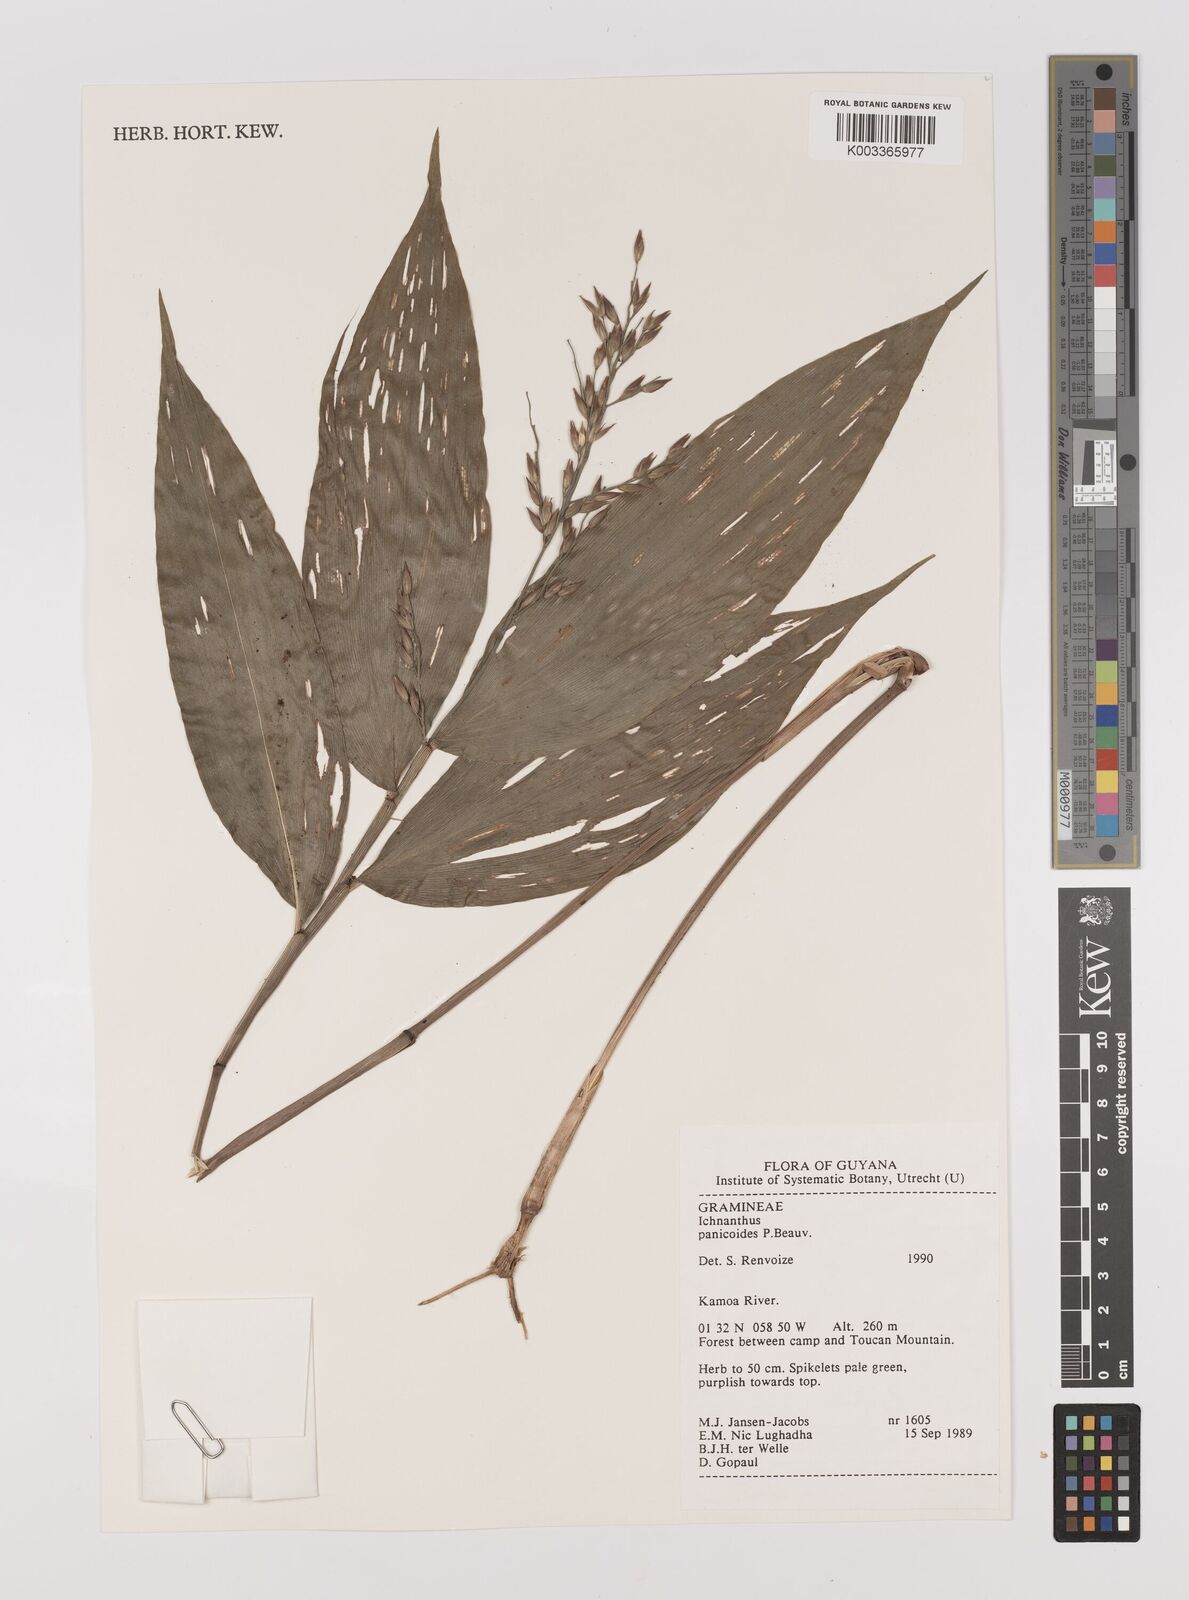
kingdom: Plantae
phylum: Tracheophyta
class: Liliopsida
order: Poales
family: Poaceae
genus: Ichnanthus
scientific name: Ichnanthus panicoides
